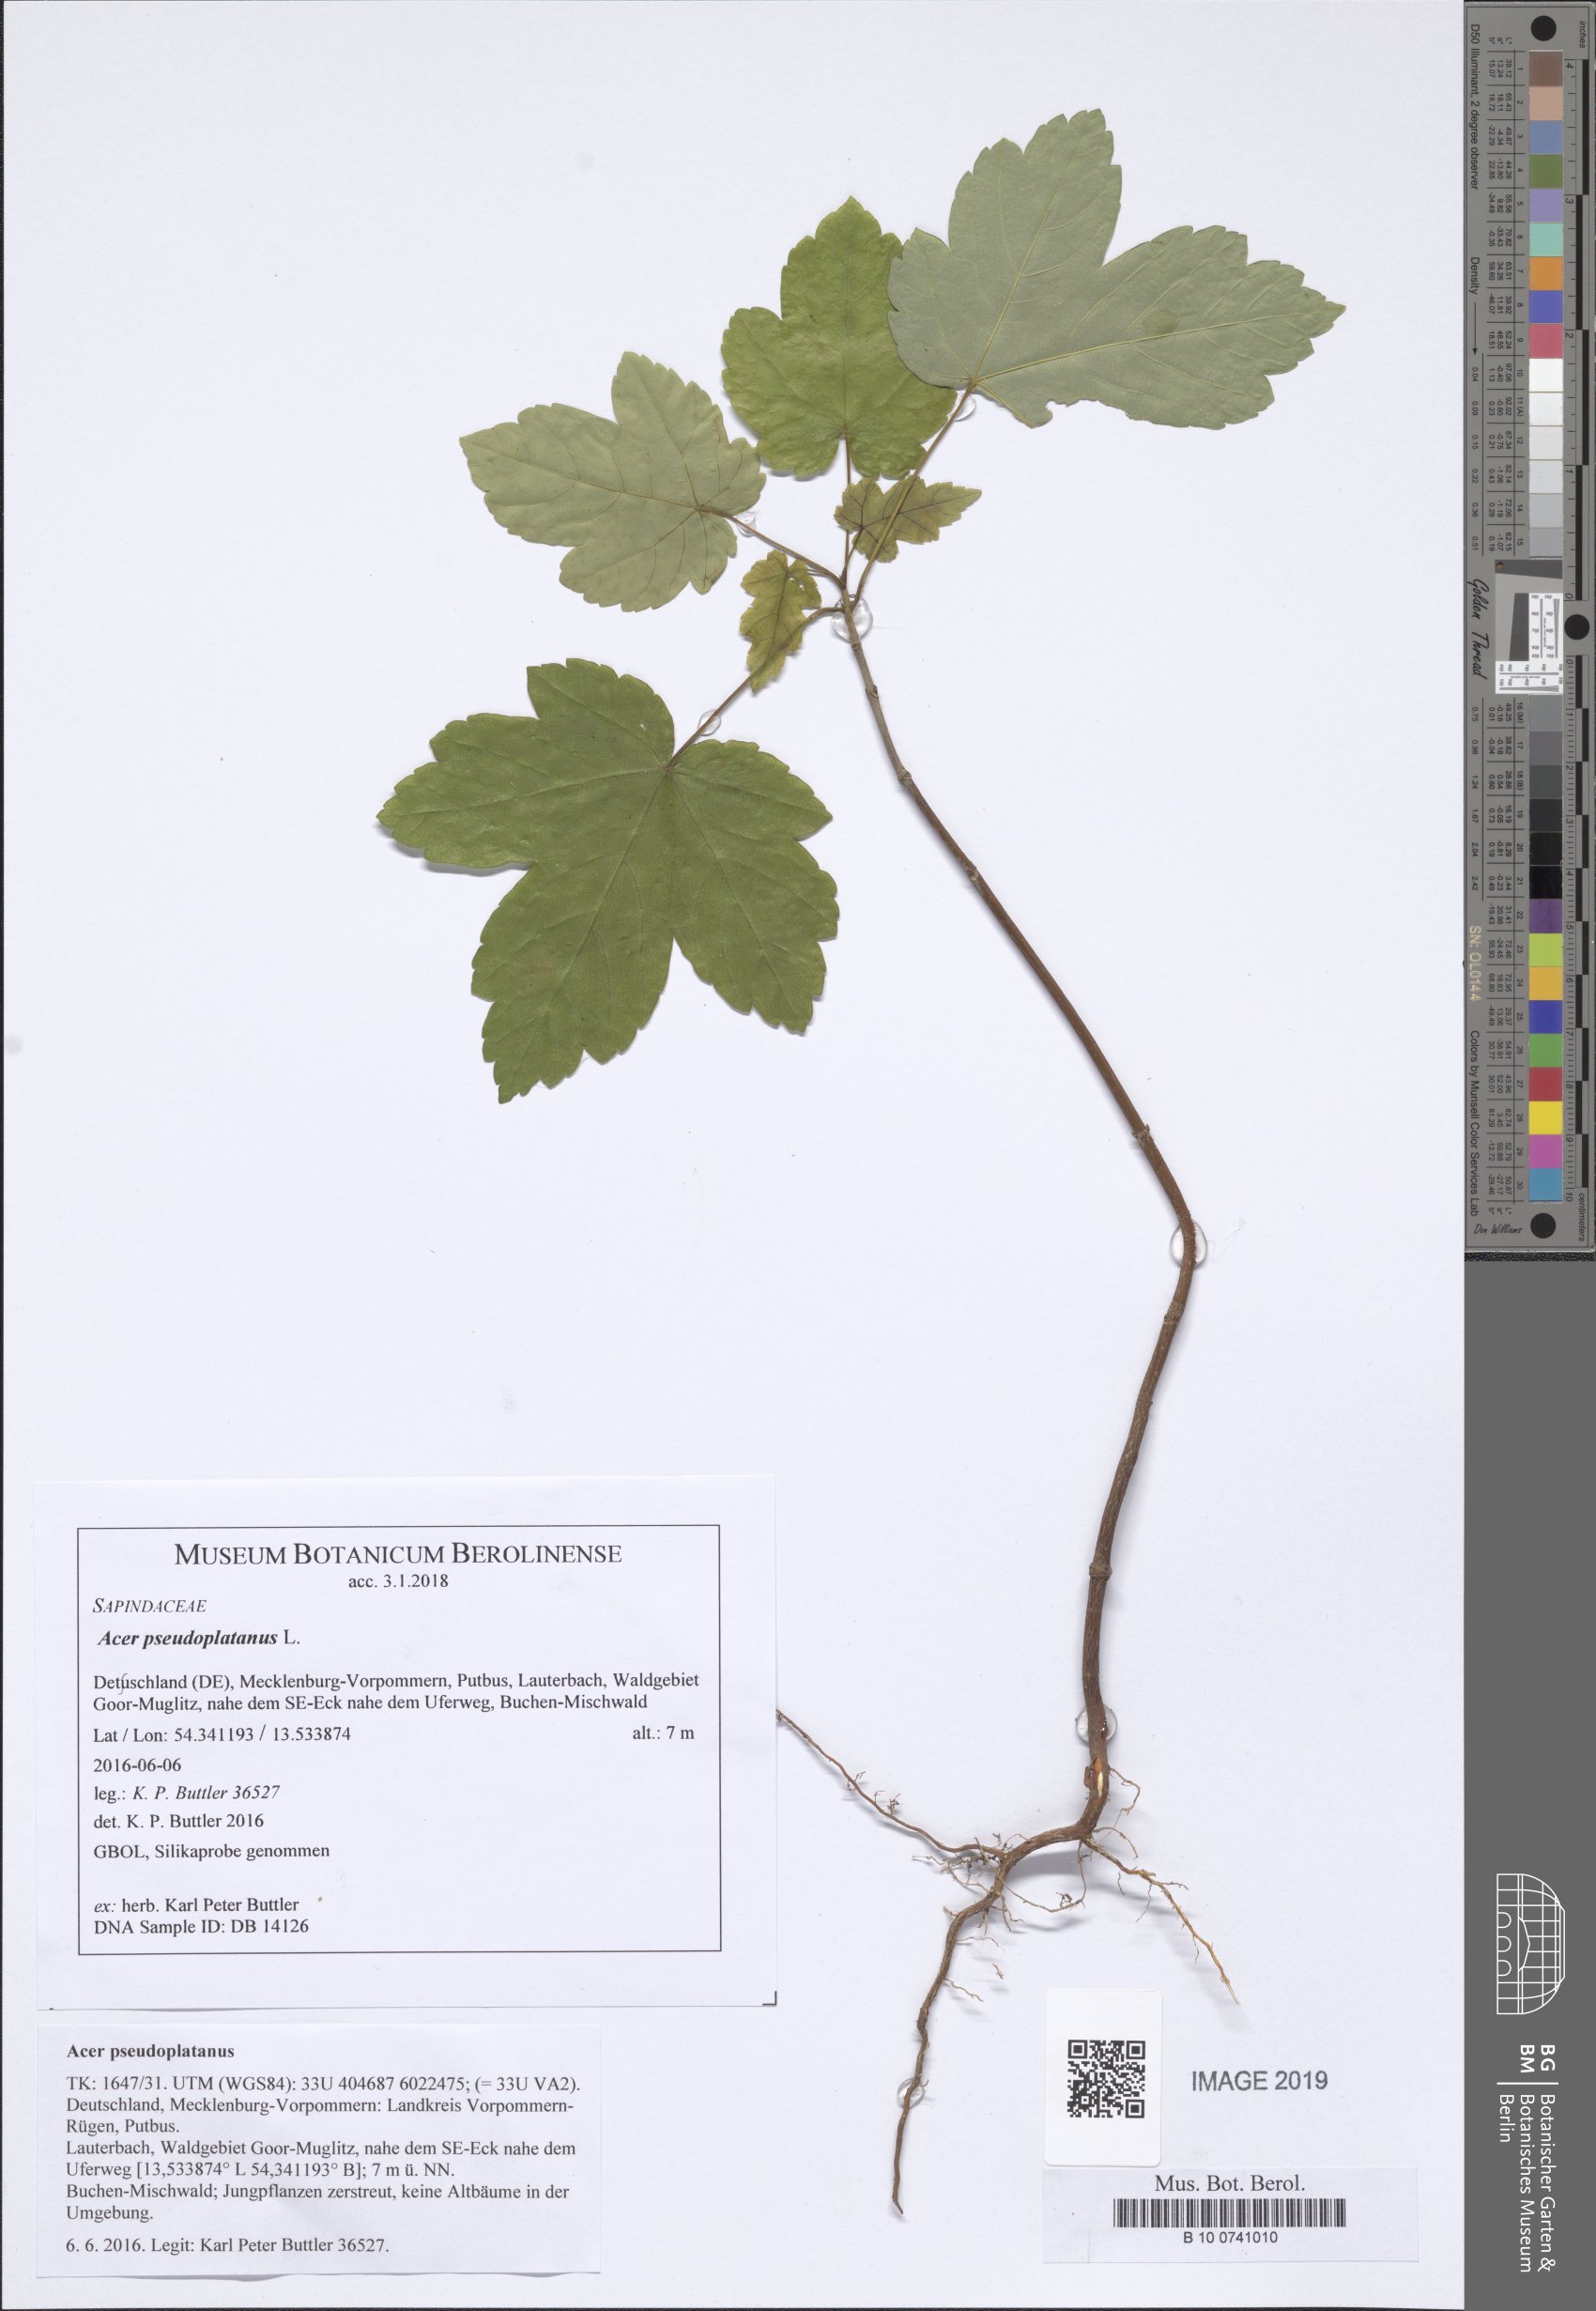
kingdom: Plantae
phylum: Tracheophyta
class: Magnoliopsida
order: Sapindales
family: Sapindaceae
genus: Acer
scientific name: Acer pseudoplatanus
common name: Sycamore
